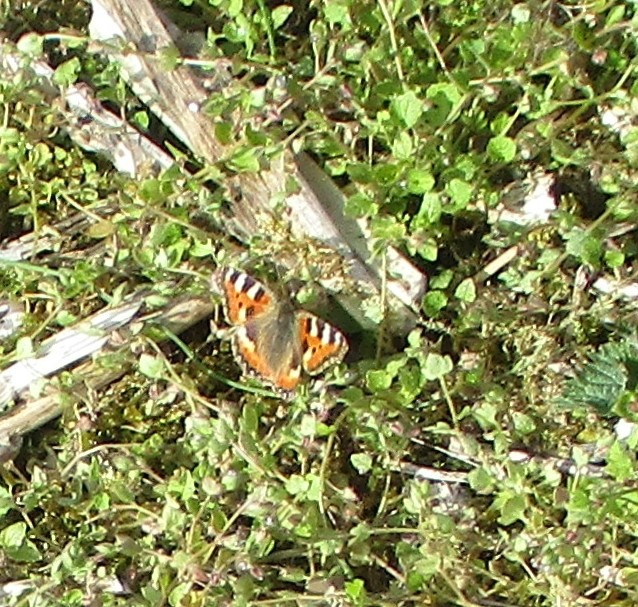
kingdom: Animalia
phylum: Arthropoda
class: Insecta
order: Lepidoptera
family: Nymphalidae
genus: Aglais
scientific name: Aglais urticae
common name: Nældens takvinge
